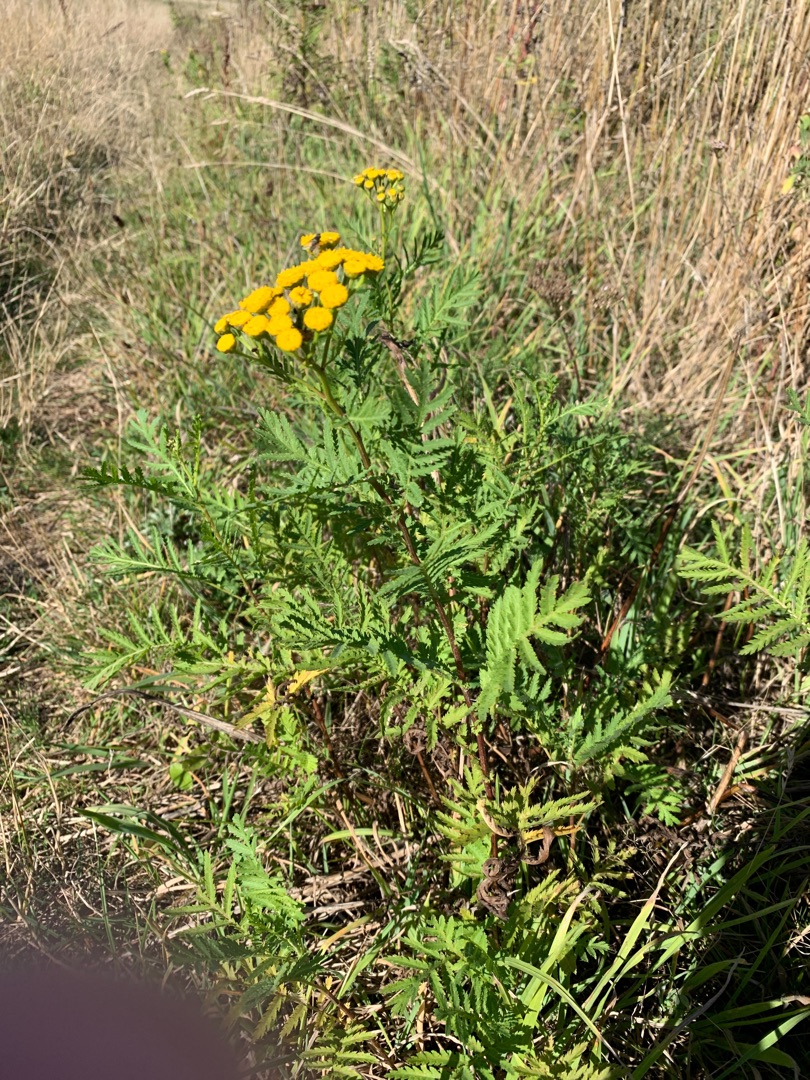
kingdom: Plantae
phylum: Tracheophyta
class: Magnoliopsida
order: Asterales
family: Asteraceae
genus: Tanacetum
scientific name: Tanacetum vulgare
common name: Rejnfan
